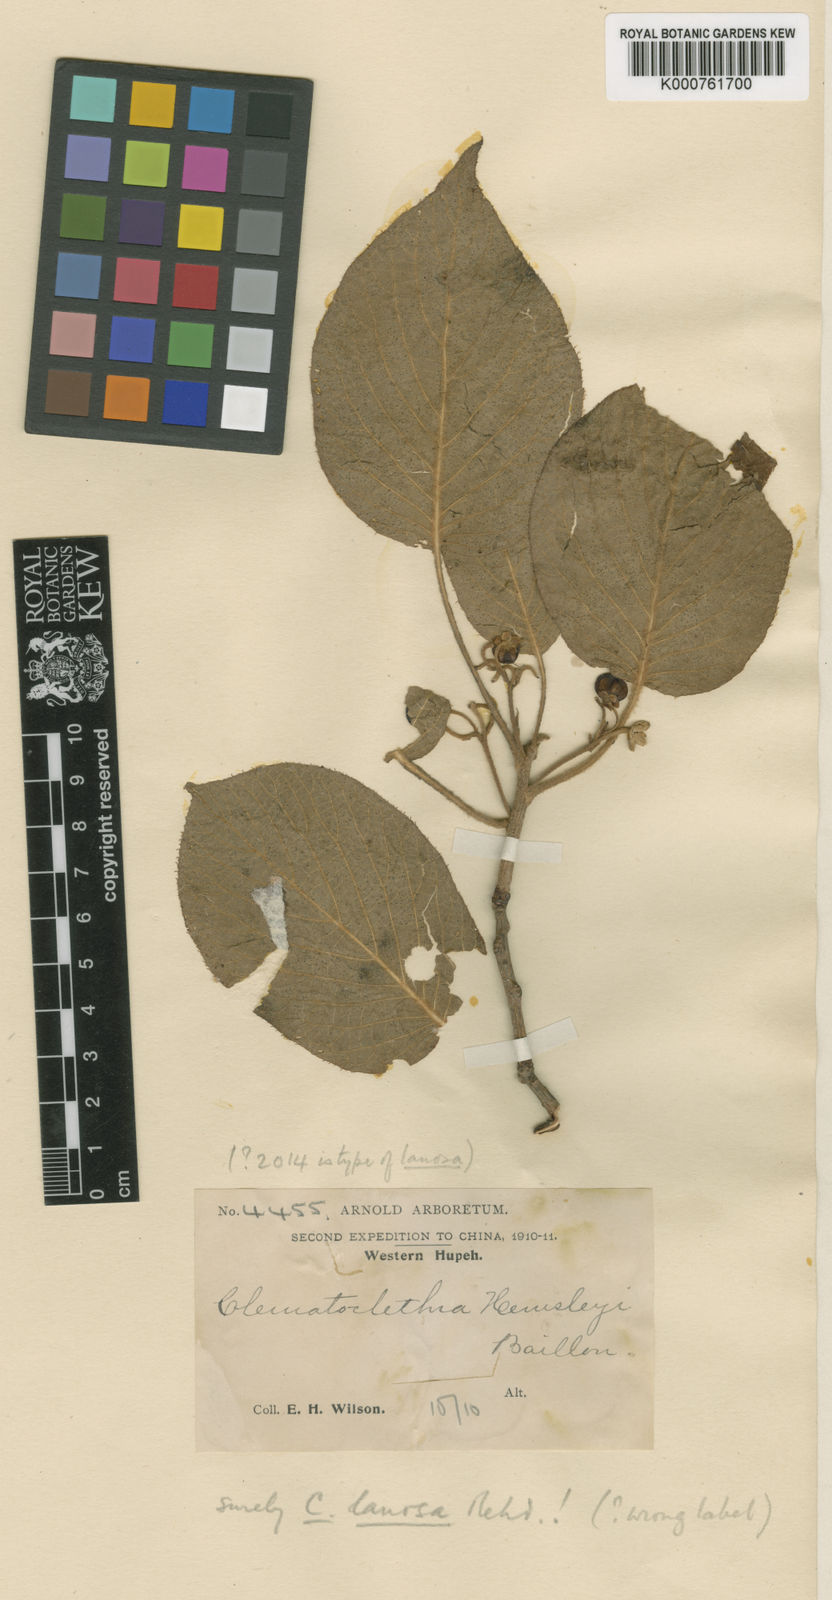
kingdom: Plantae
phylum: Tracheophyta
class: Magnoliopsida
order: Ericales
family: Actinidiaceae
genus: Clematoclethra
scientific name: Clematoclethra scandens
